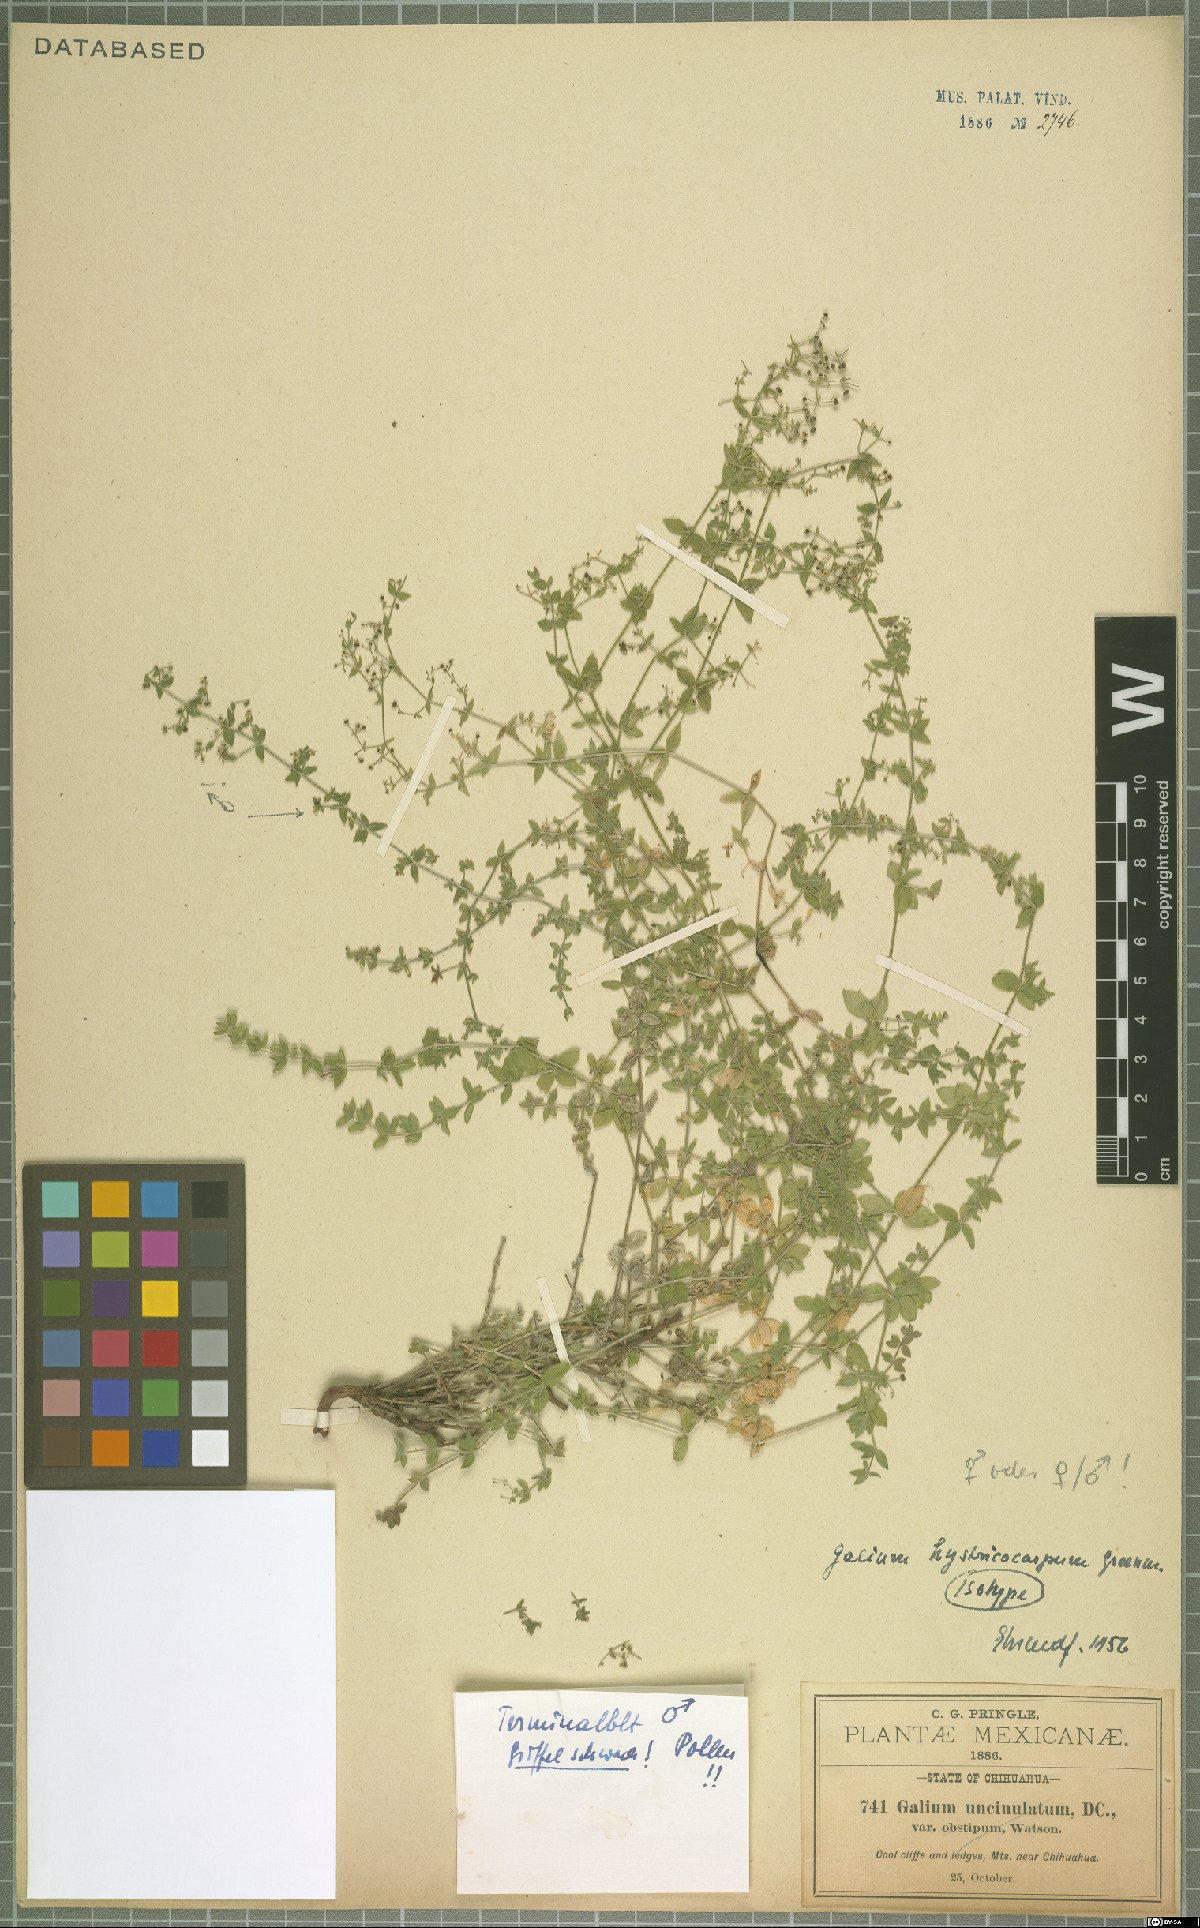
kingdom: Plantae
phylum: Tracheophyta
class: Magnoliopsida
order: Gentianales
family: Rubiaceae
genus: Galium
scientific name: Galium hystricocarpum
